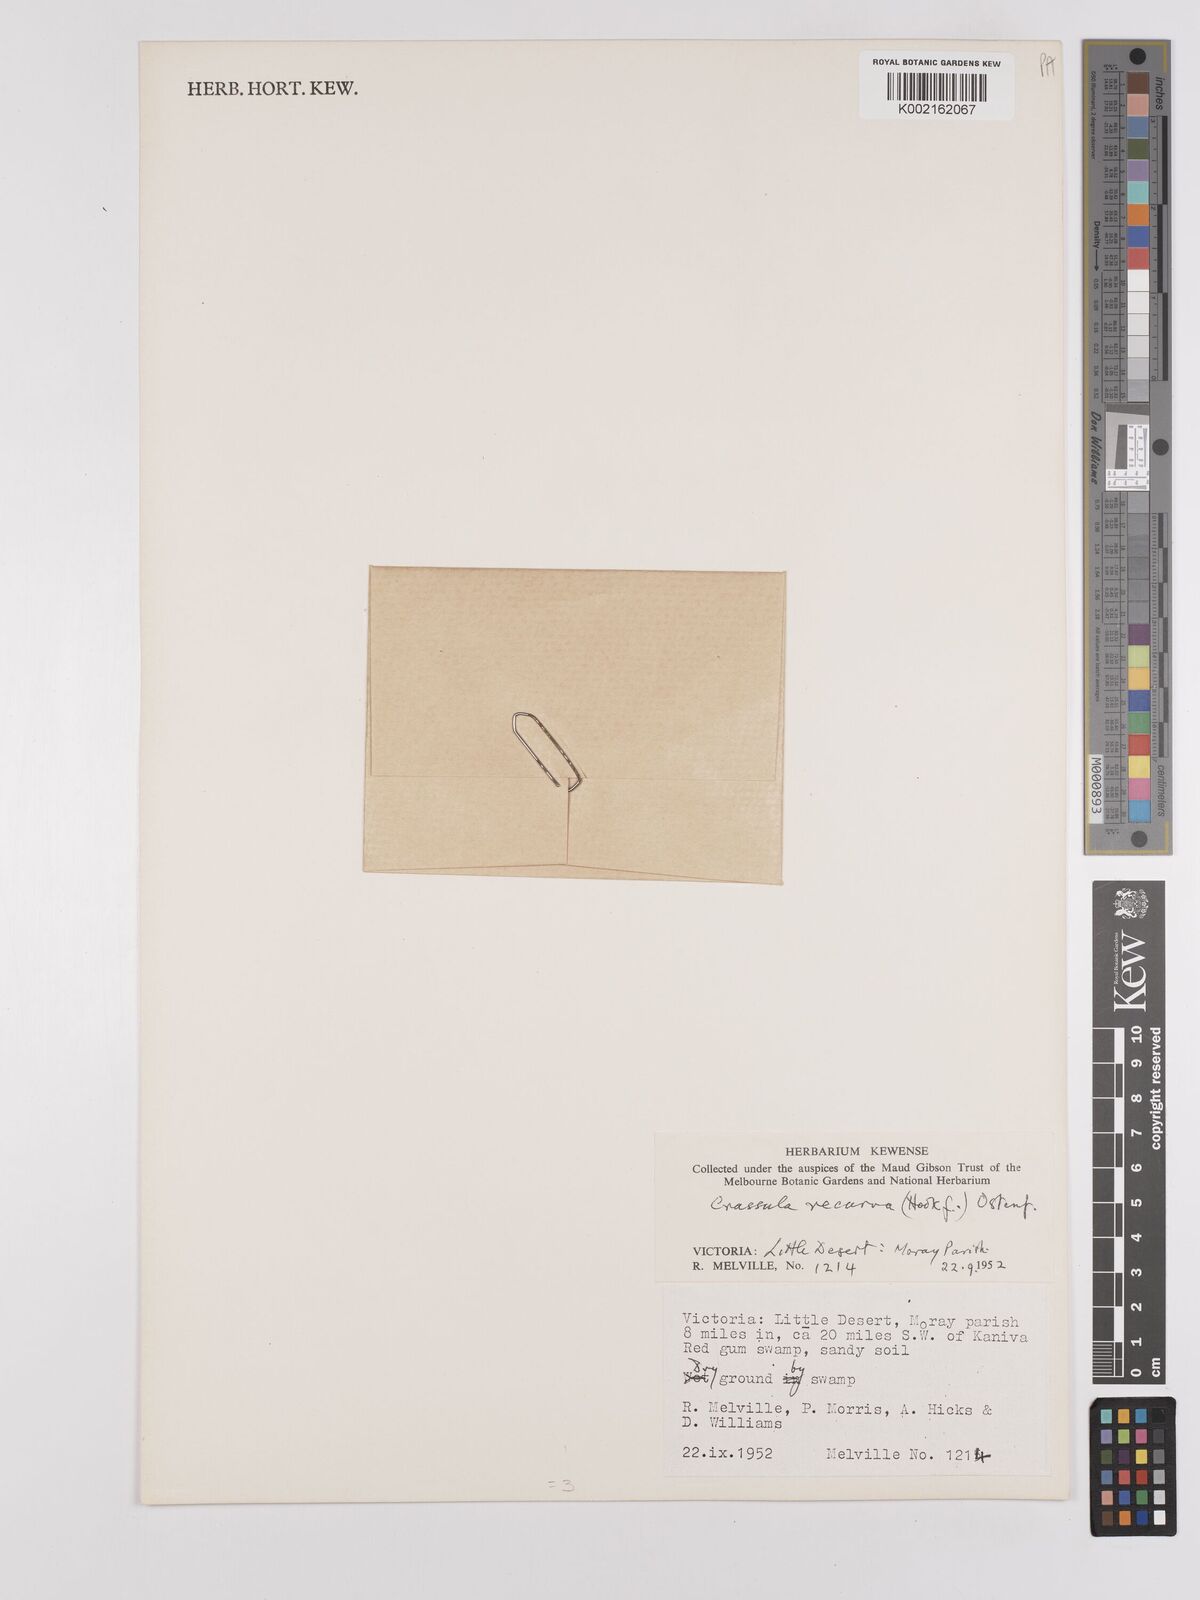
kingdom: Plantae
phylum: Tracheophyta
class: Magnoliopsida
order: Saxifragales
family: Crassulaceae
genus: Crassula
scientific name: Crassula helmsii
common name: New zealand pigmyweed
